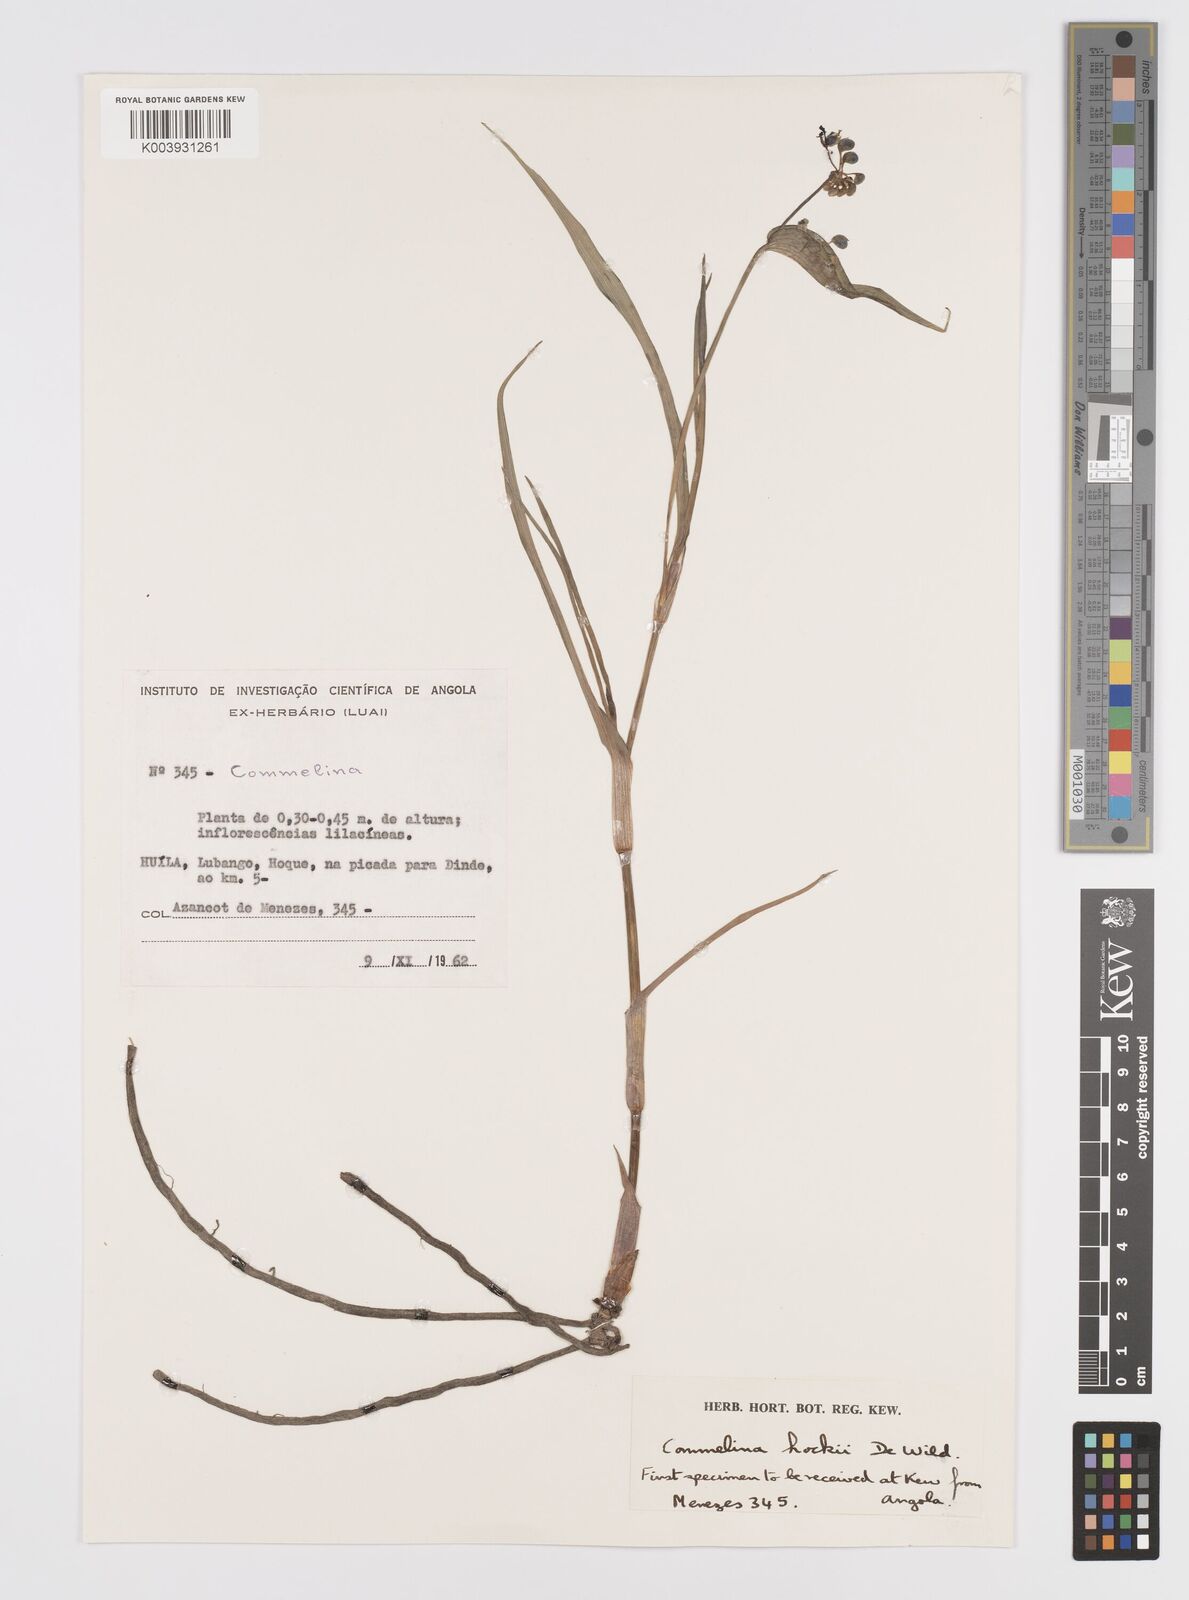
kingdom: Plantae
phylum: Tracheophyta
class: Liliopsida
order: Commelinales
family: Commelinaceae
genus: Commelina
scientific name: Commelina hockii
